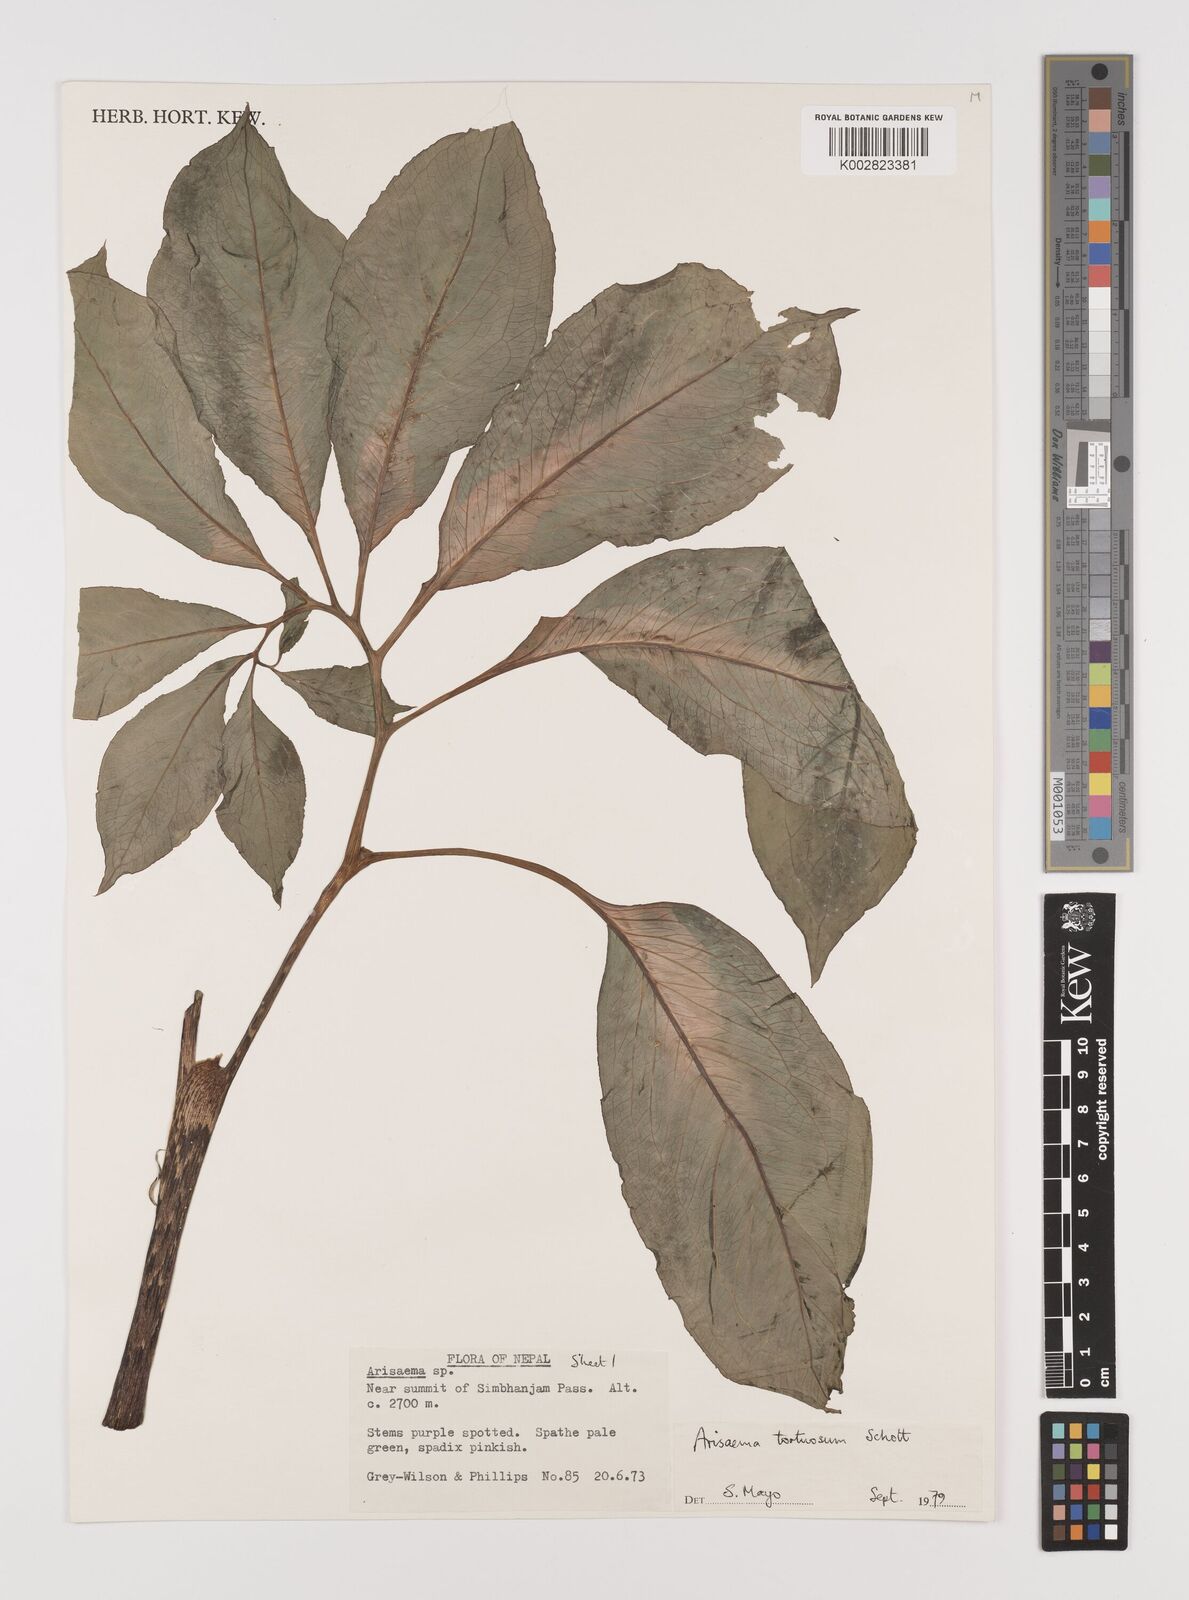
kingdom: Plantae
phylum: Tracheophyta
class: Liliopsida
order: Alismatales
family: Araceae
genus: Arisaema
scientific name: Arisaema tortuosum
